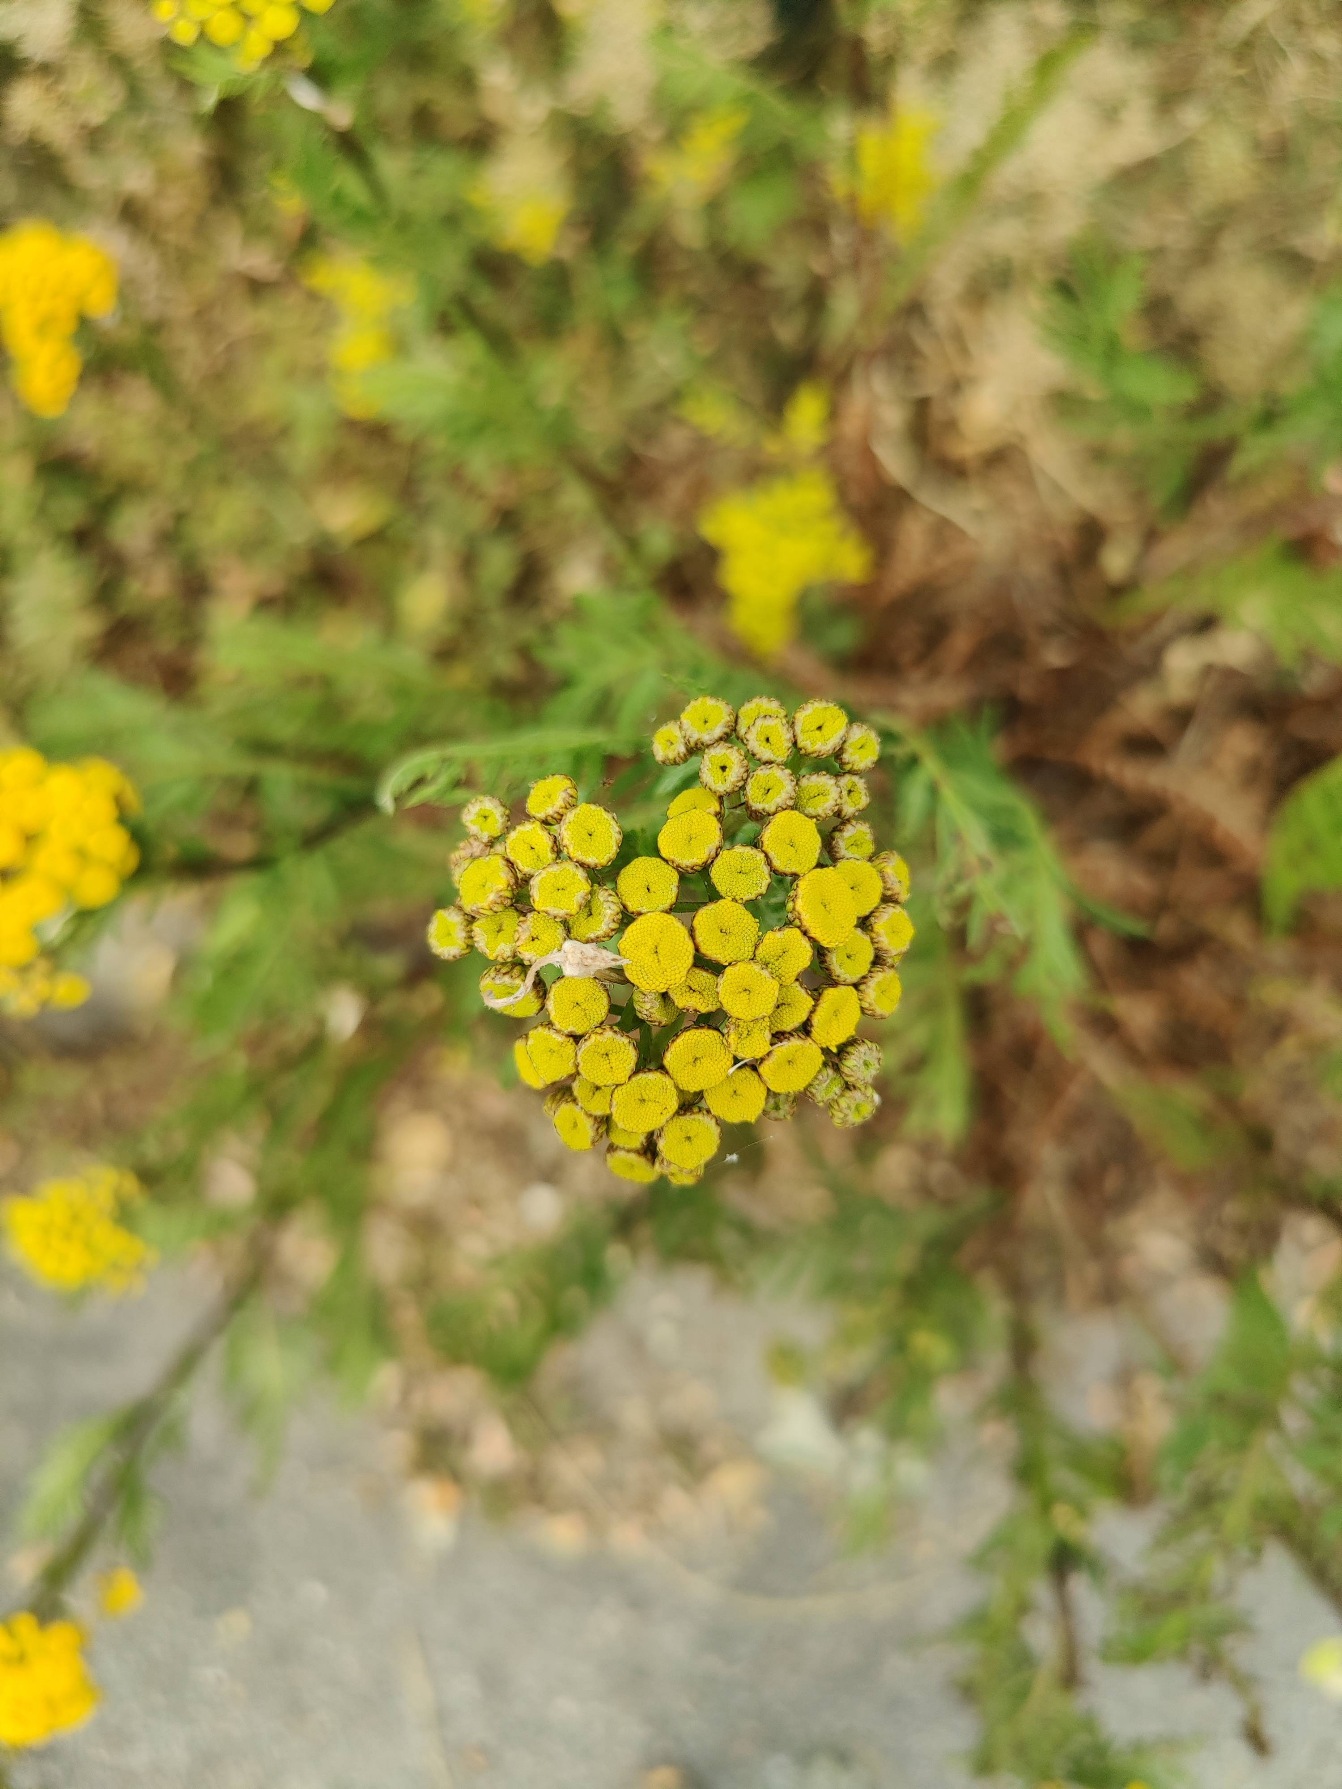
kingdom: Plantae
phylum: Tracheophyta
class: Magnoliopsida
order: Asterales
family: Asteraceae
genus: Tanacetum
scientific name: Tanacetum vulgare
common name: Rejnfan
